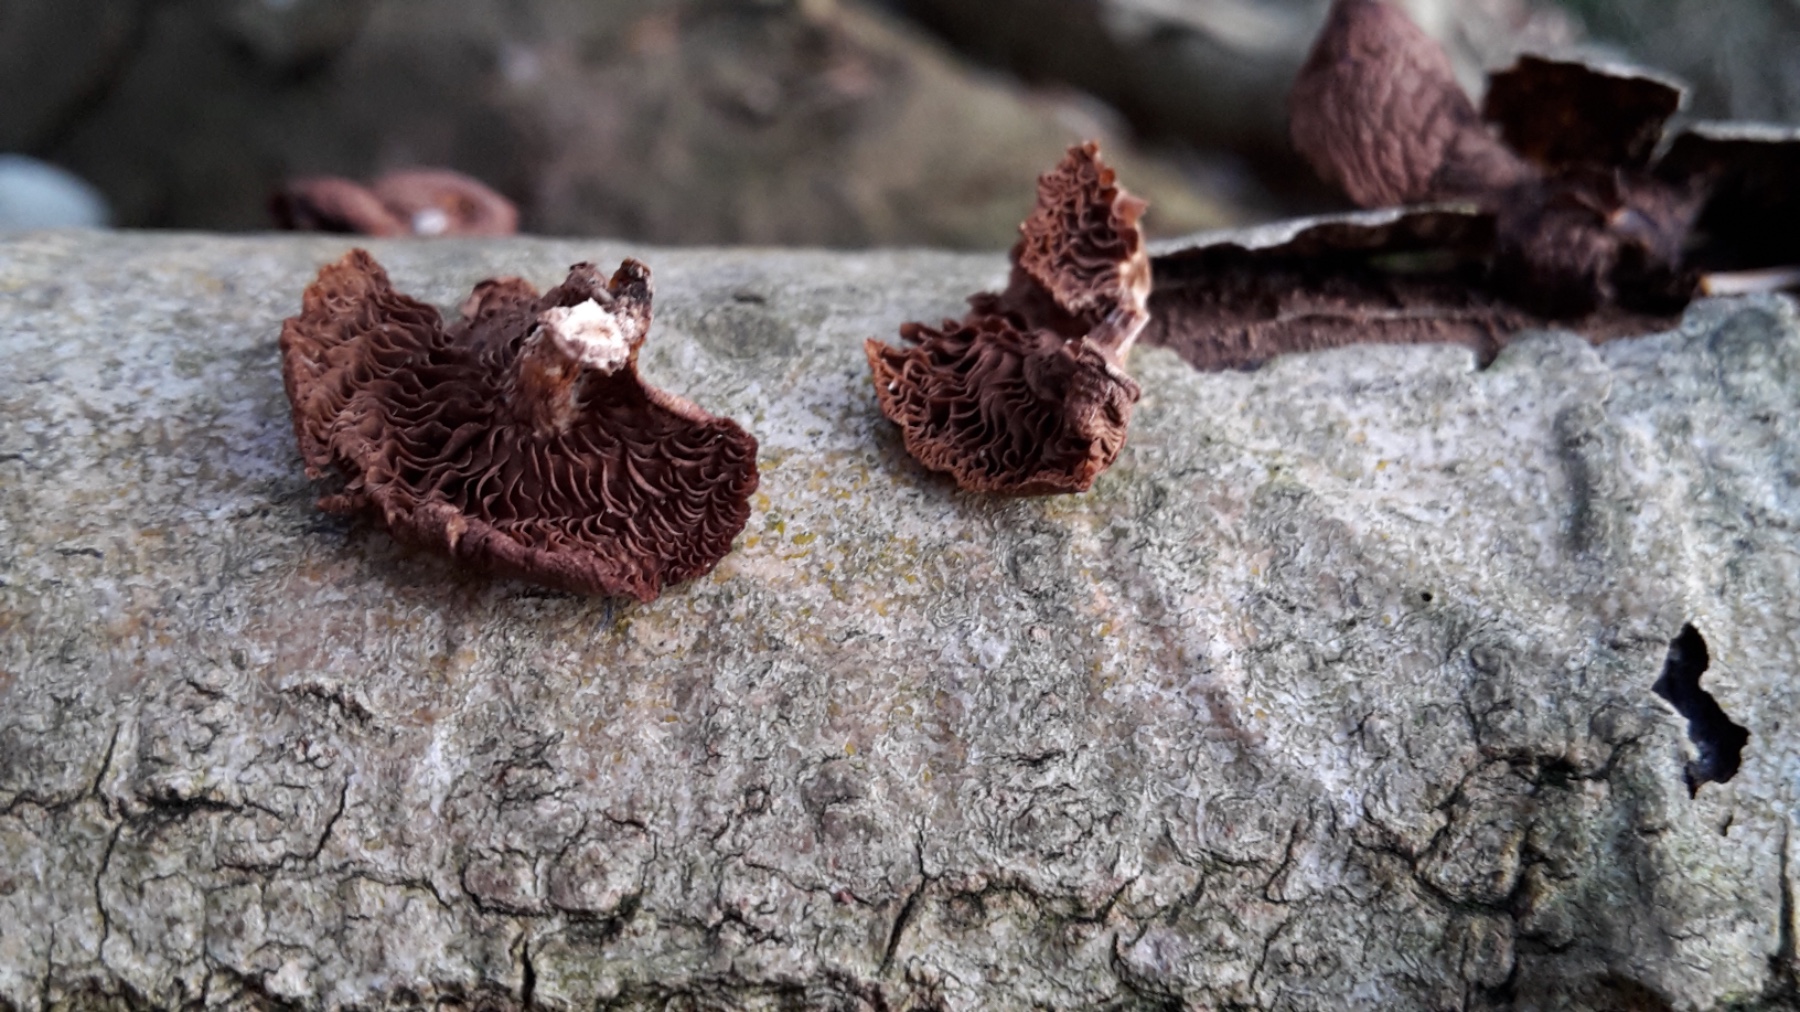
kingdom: Fungi
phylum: Basidiomycota
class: Agaricomycetes
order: Agaricales
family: Strophariaceae
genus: Deconica
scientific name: Deconica horizontalis
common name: ved-stråhat
